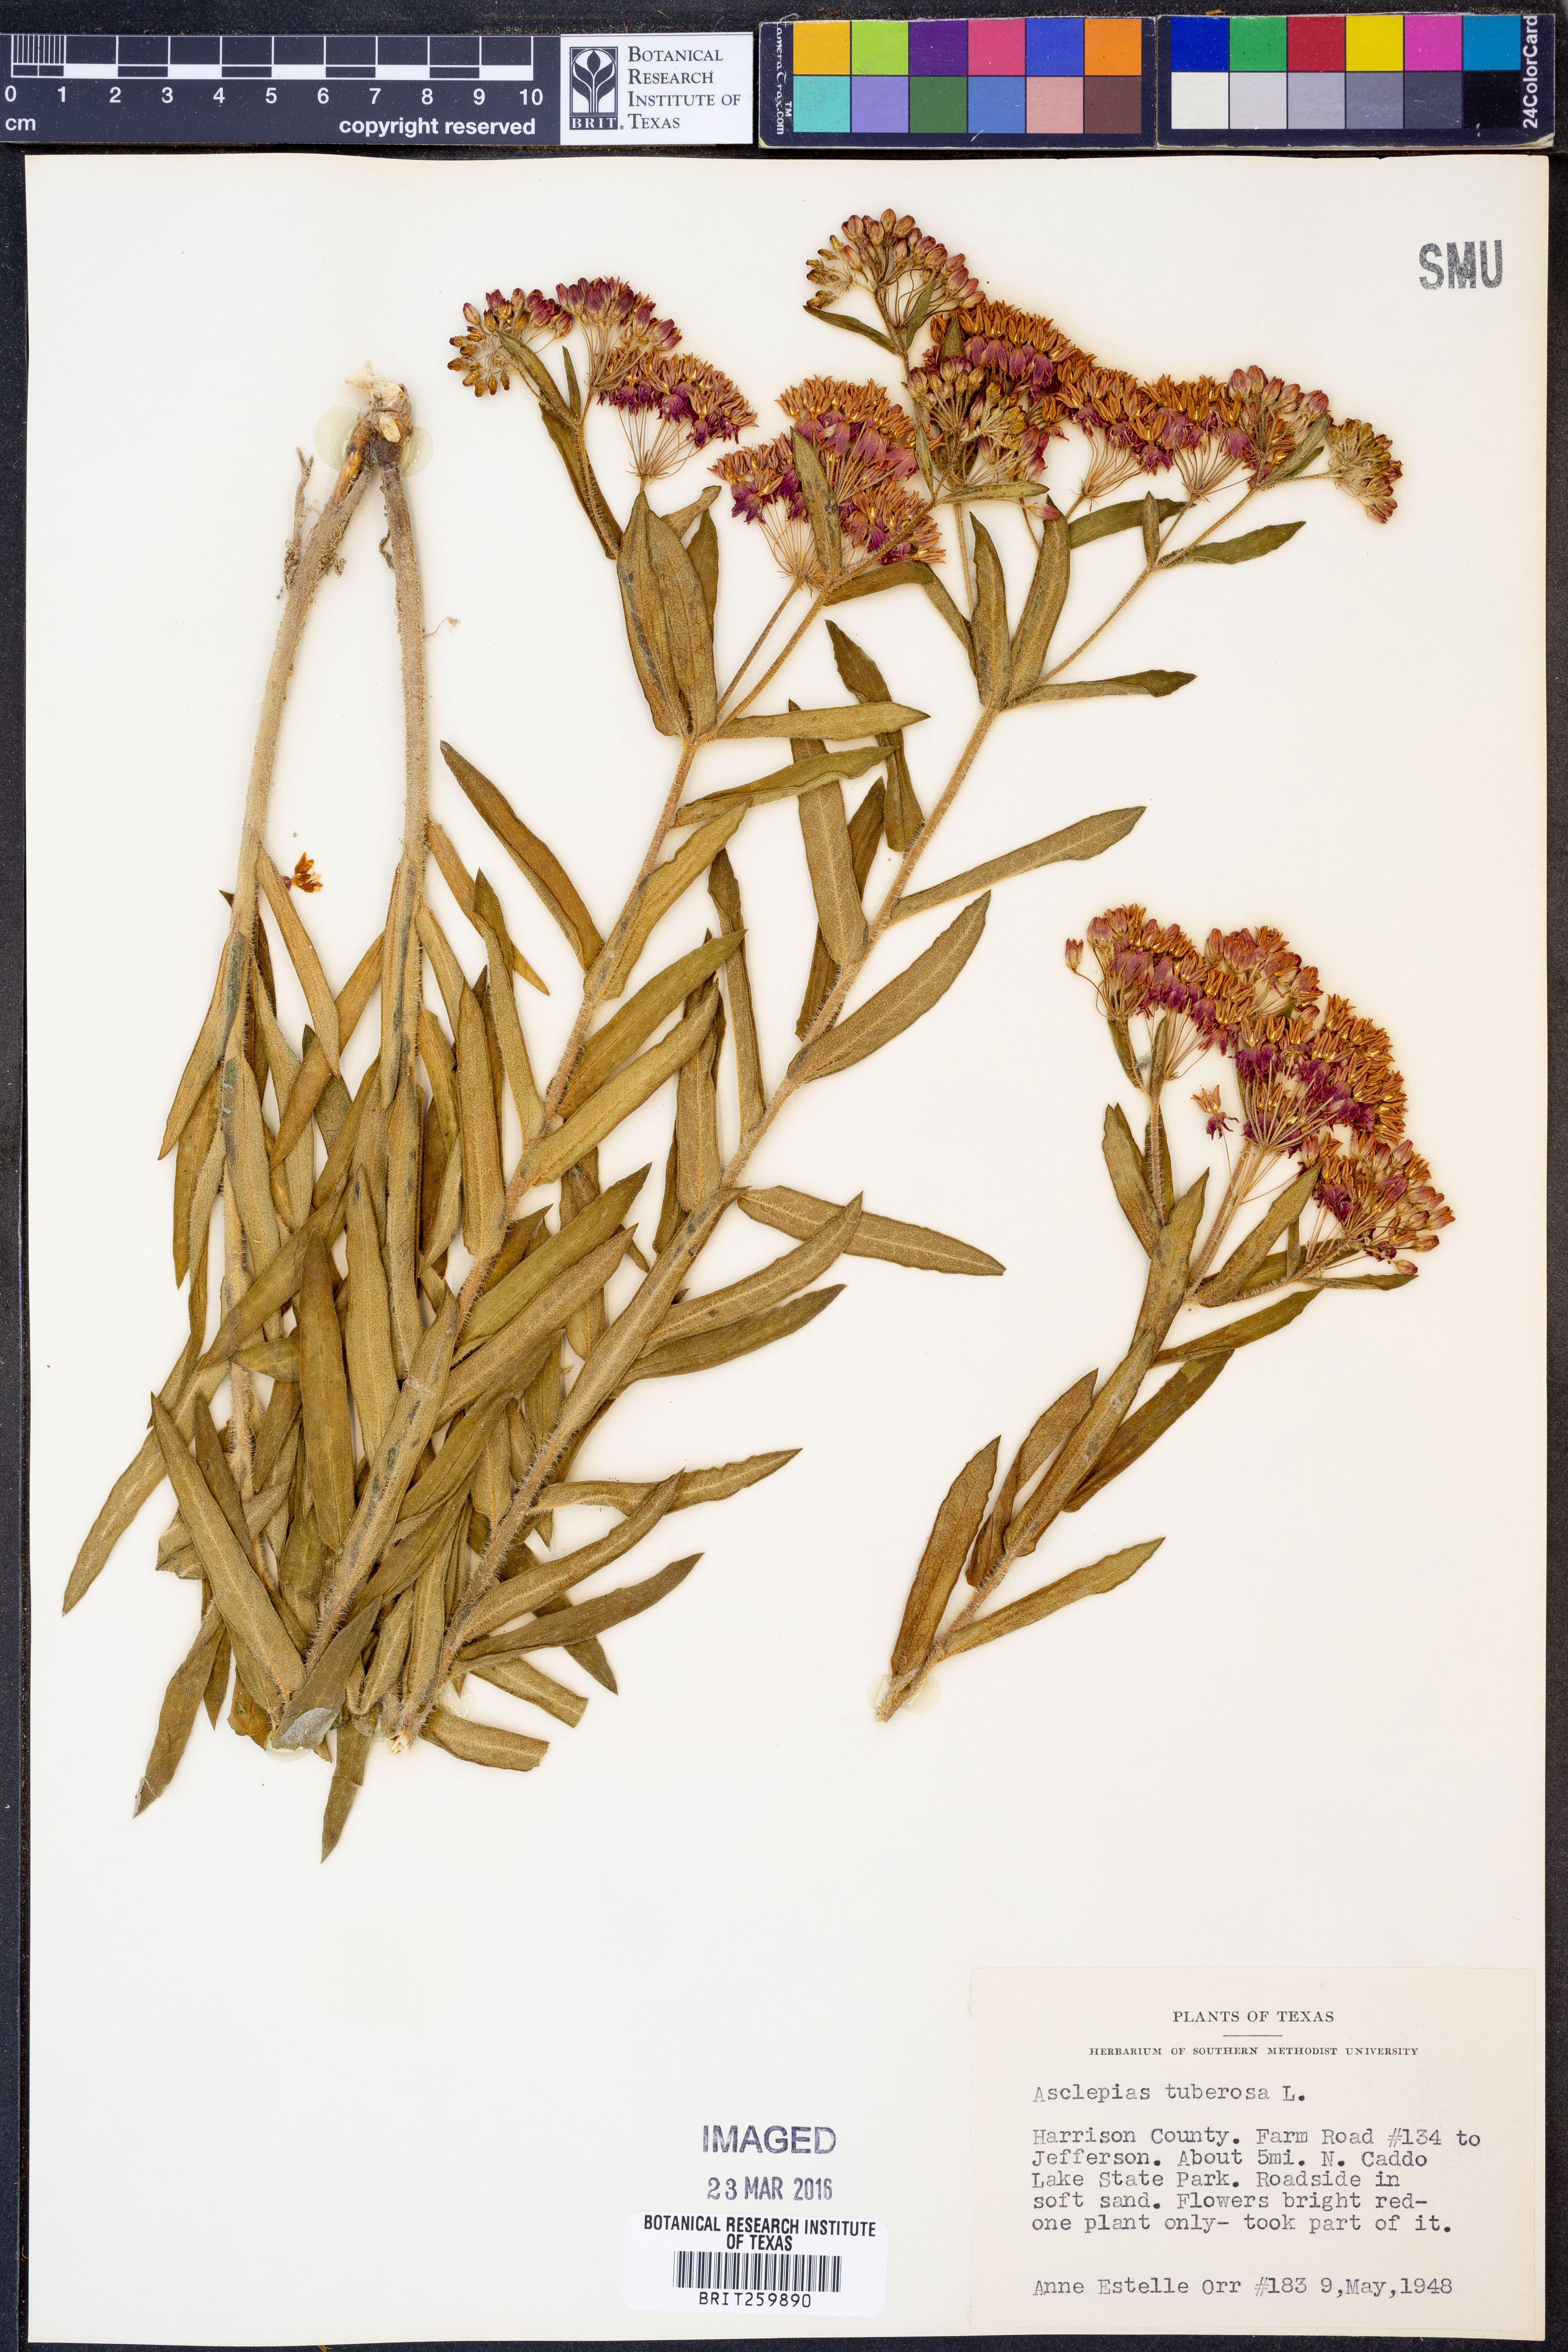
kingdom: Plantae
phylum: Tracheophyta
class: Magnoliopsida
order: Gentianales
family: Apocynaceae
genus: Asclepias
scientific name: Asclepias tuberosa
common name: Butterfly milkweed
